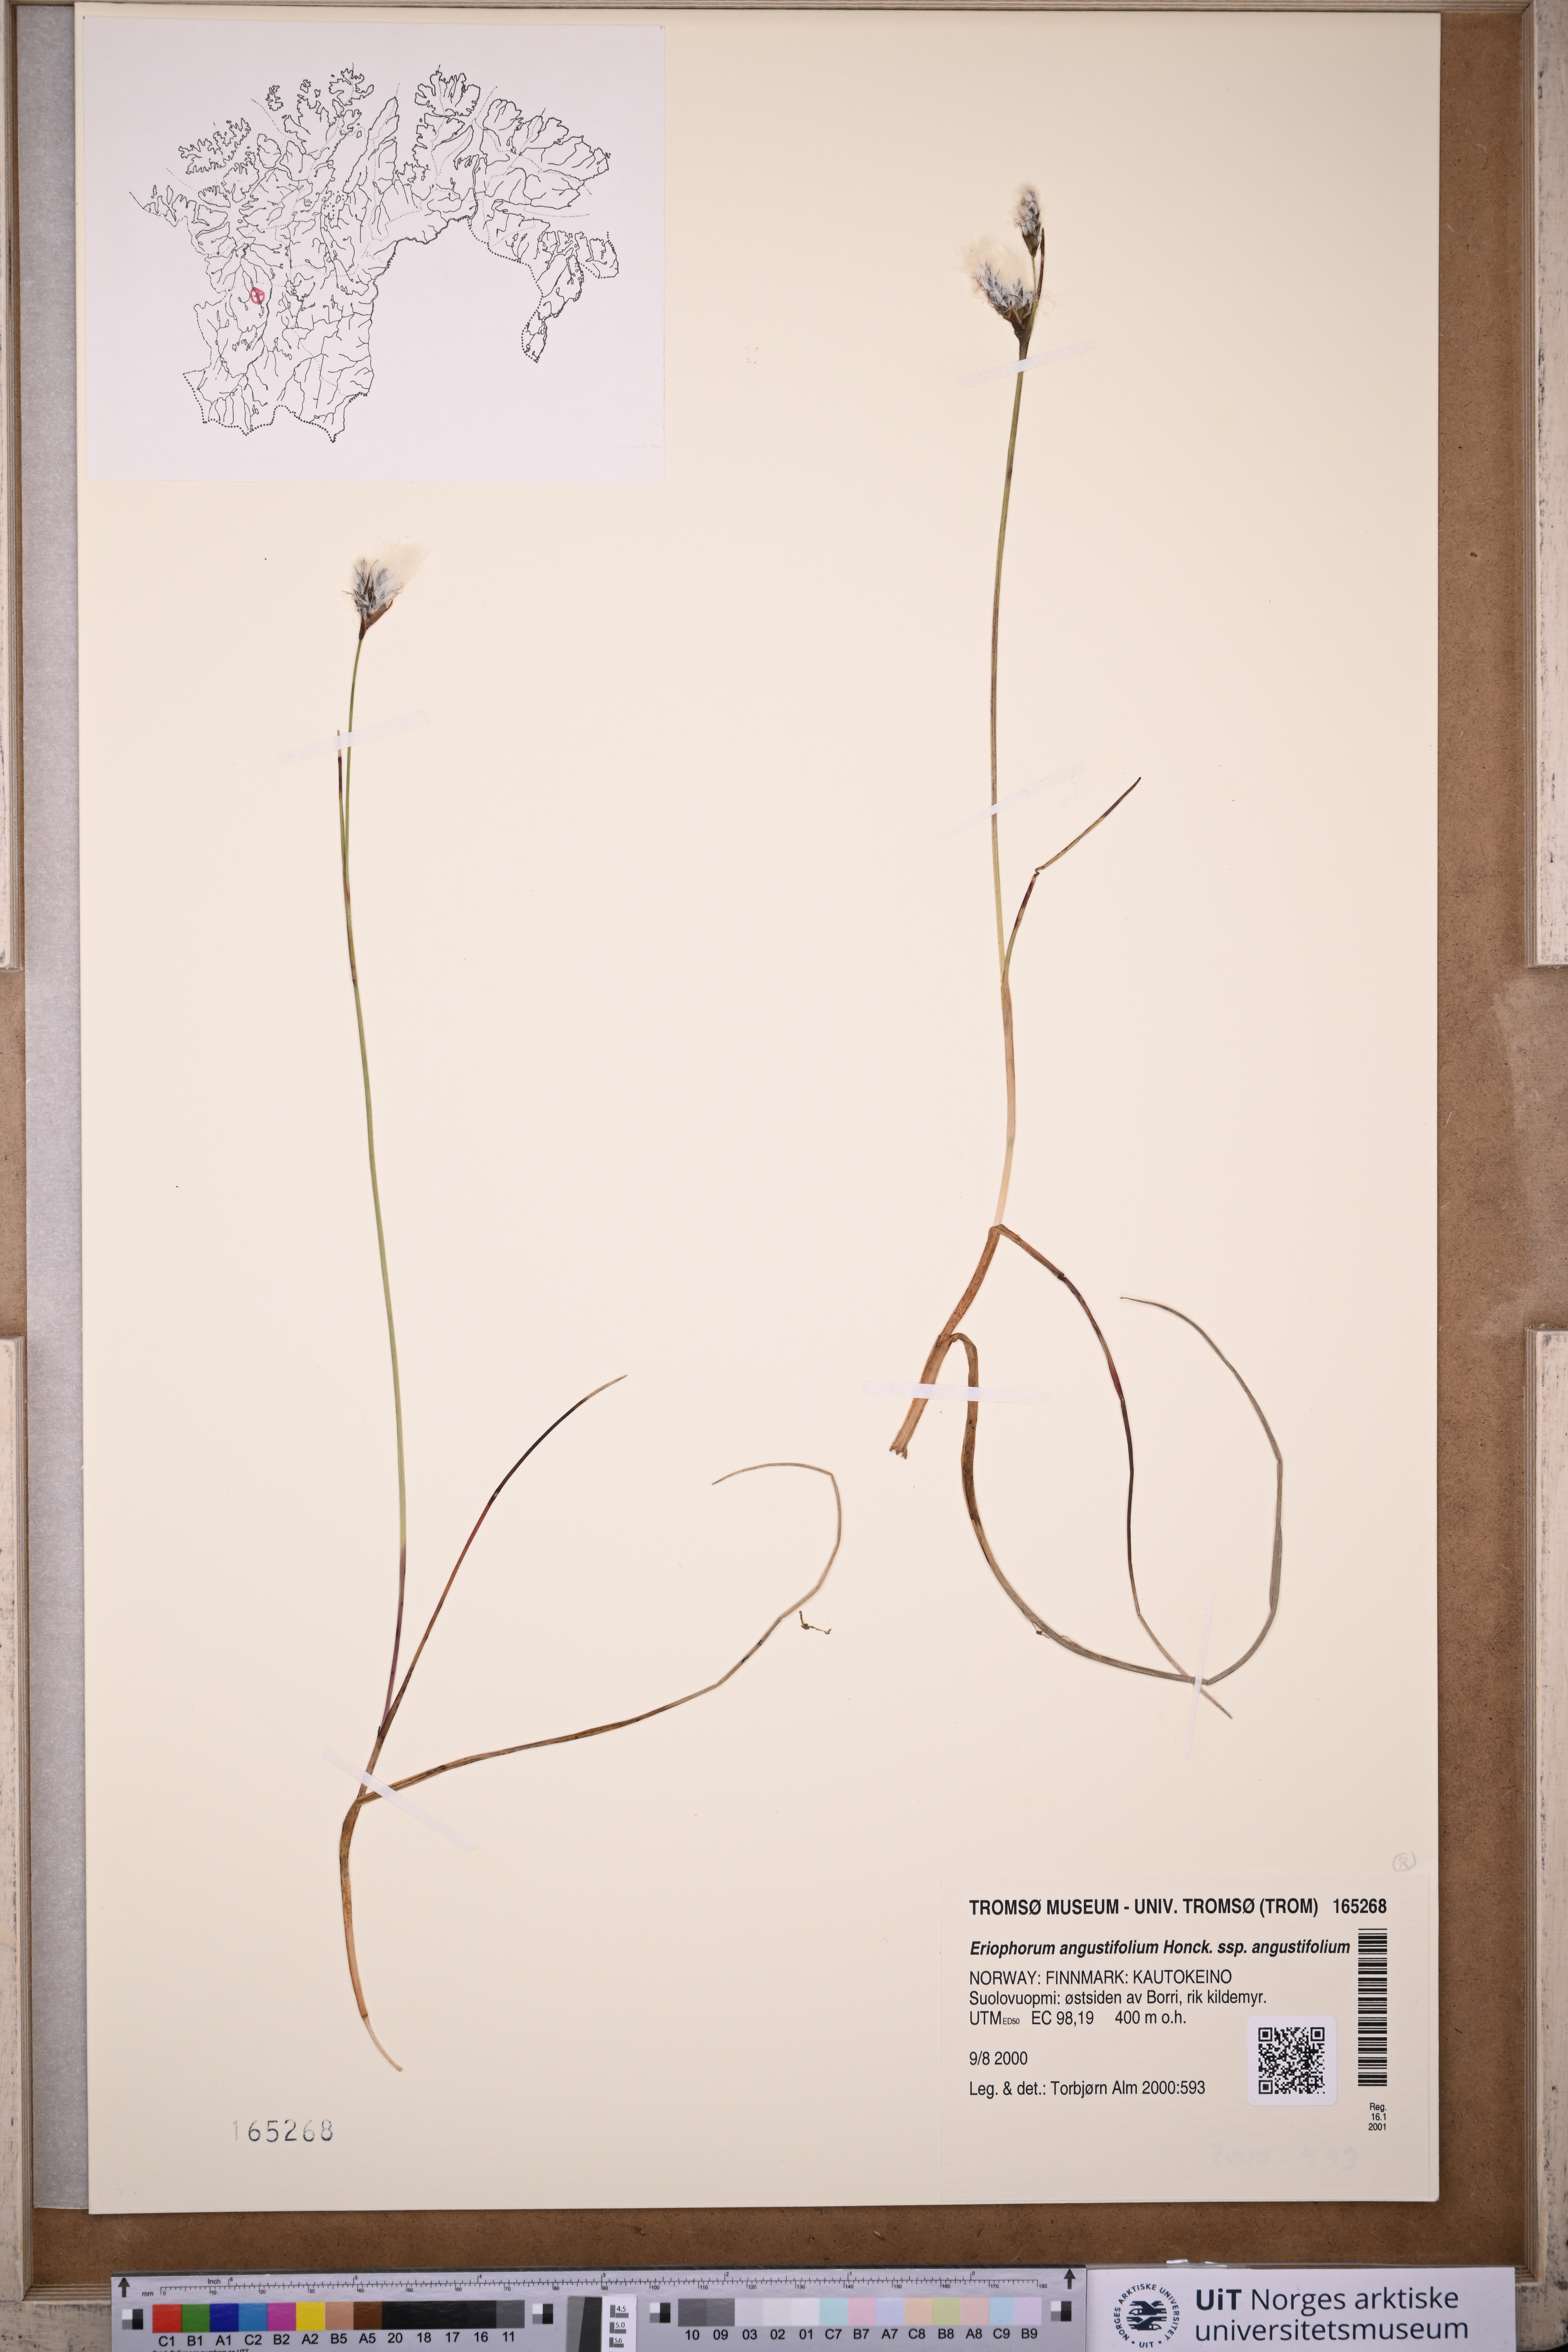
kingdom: Plantae
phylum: Tracheophyta
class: Liliopsida
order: Poales
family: Cyperaceae
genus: Eriophorum
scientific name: Eriophorum angustifolium
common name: Common cottongrass
